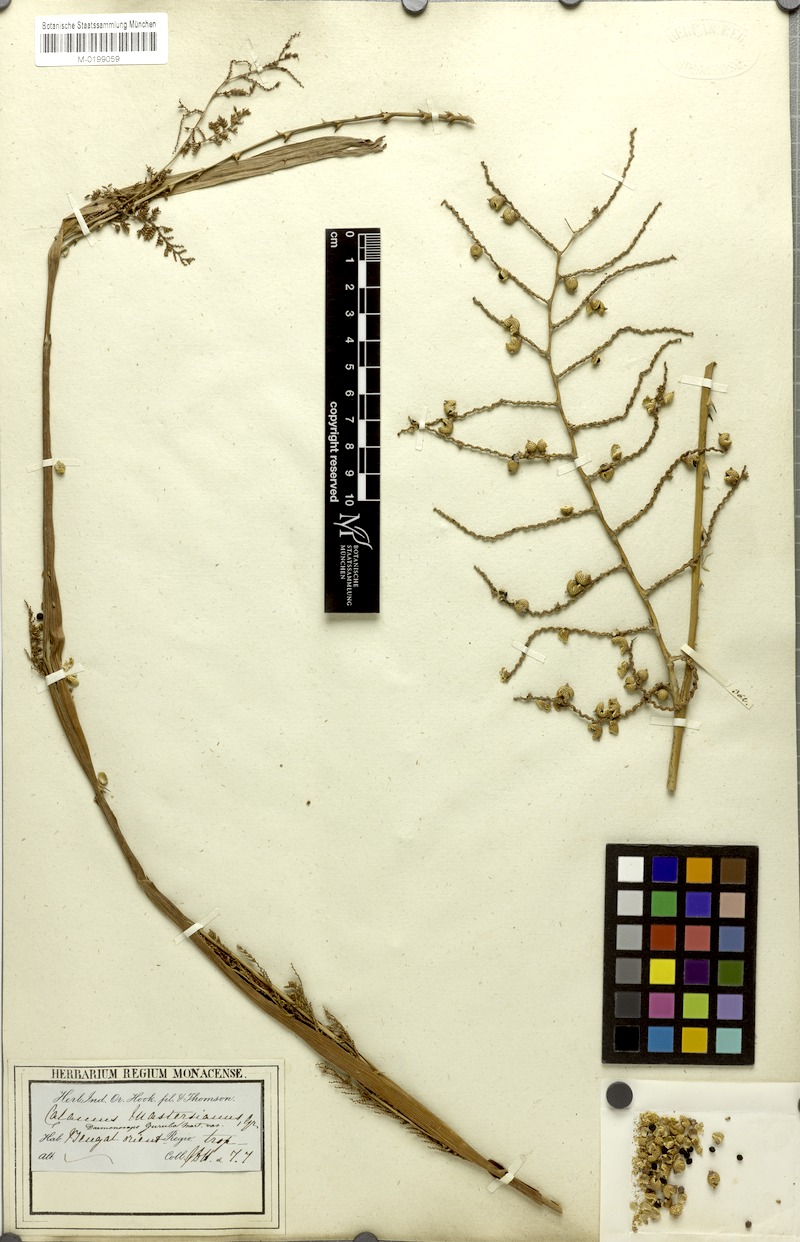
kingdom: Plantae
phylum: Tracheophyta
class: Liliopsida
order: Arecales
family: Arecaceae
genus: Calamus
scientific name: Calamus guruba
